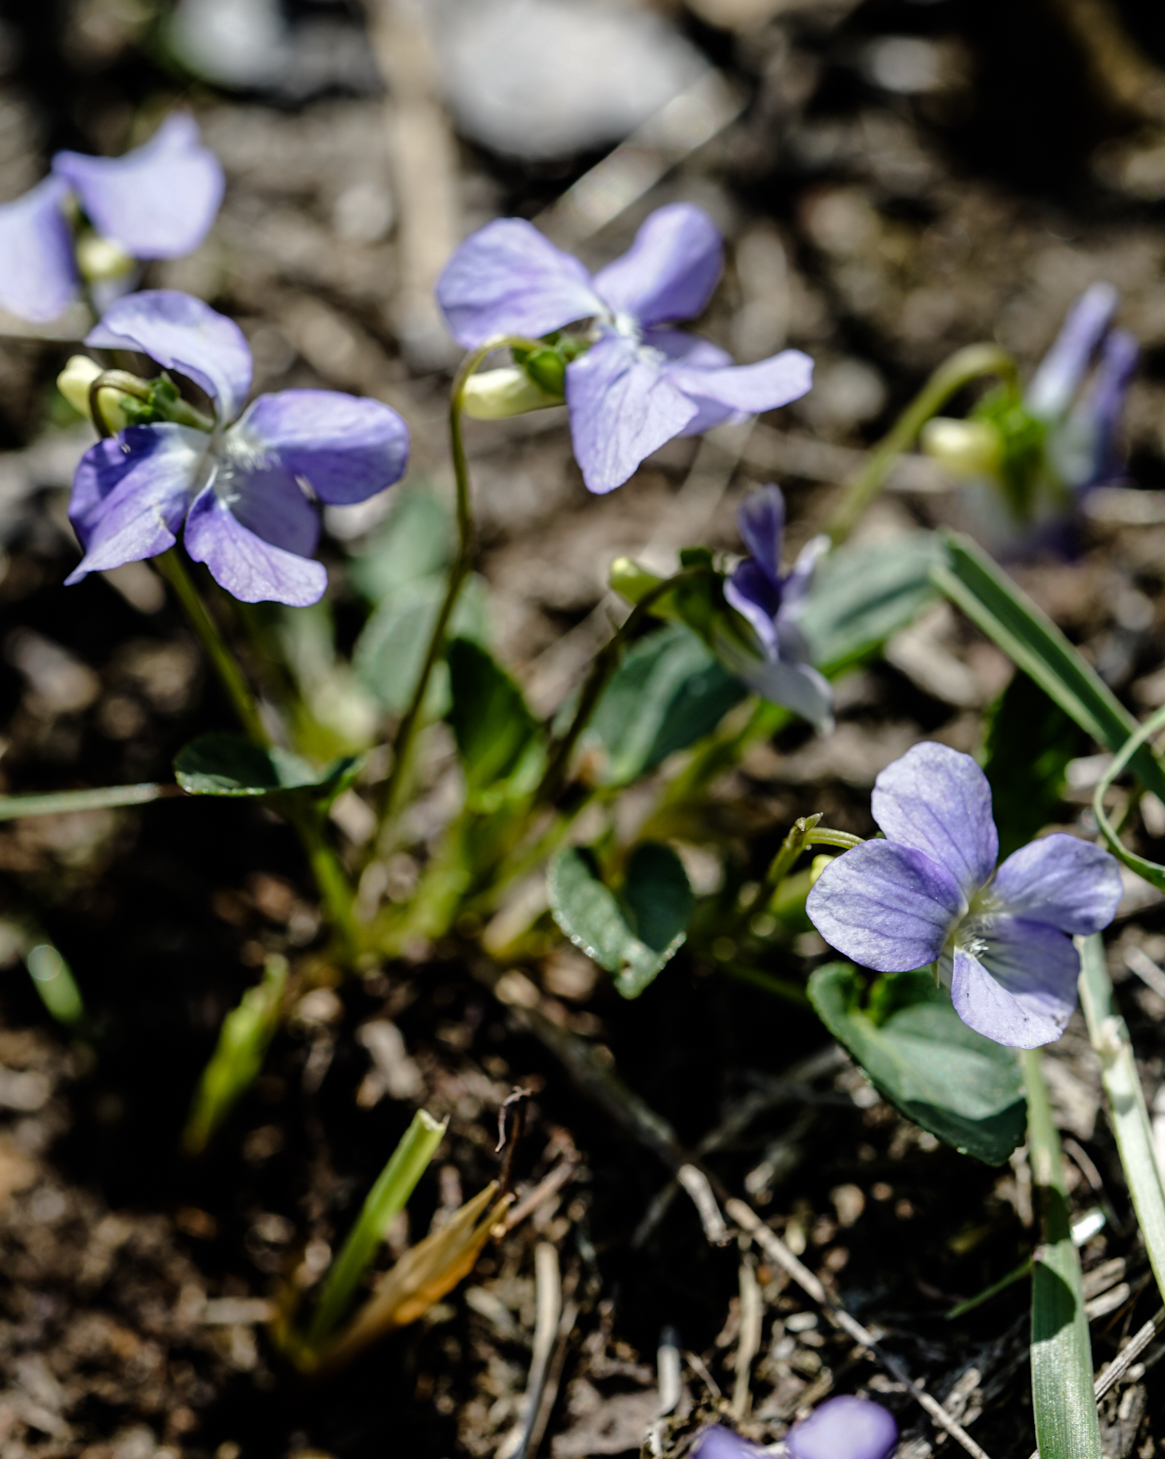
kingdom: Plantae
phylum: Tracheophyta
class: Magnoliopsida
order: Malpighiales
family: Violaceae
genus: Viola
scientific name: Viola canina
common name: Heath dog-violet
